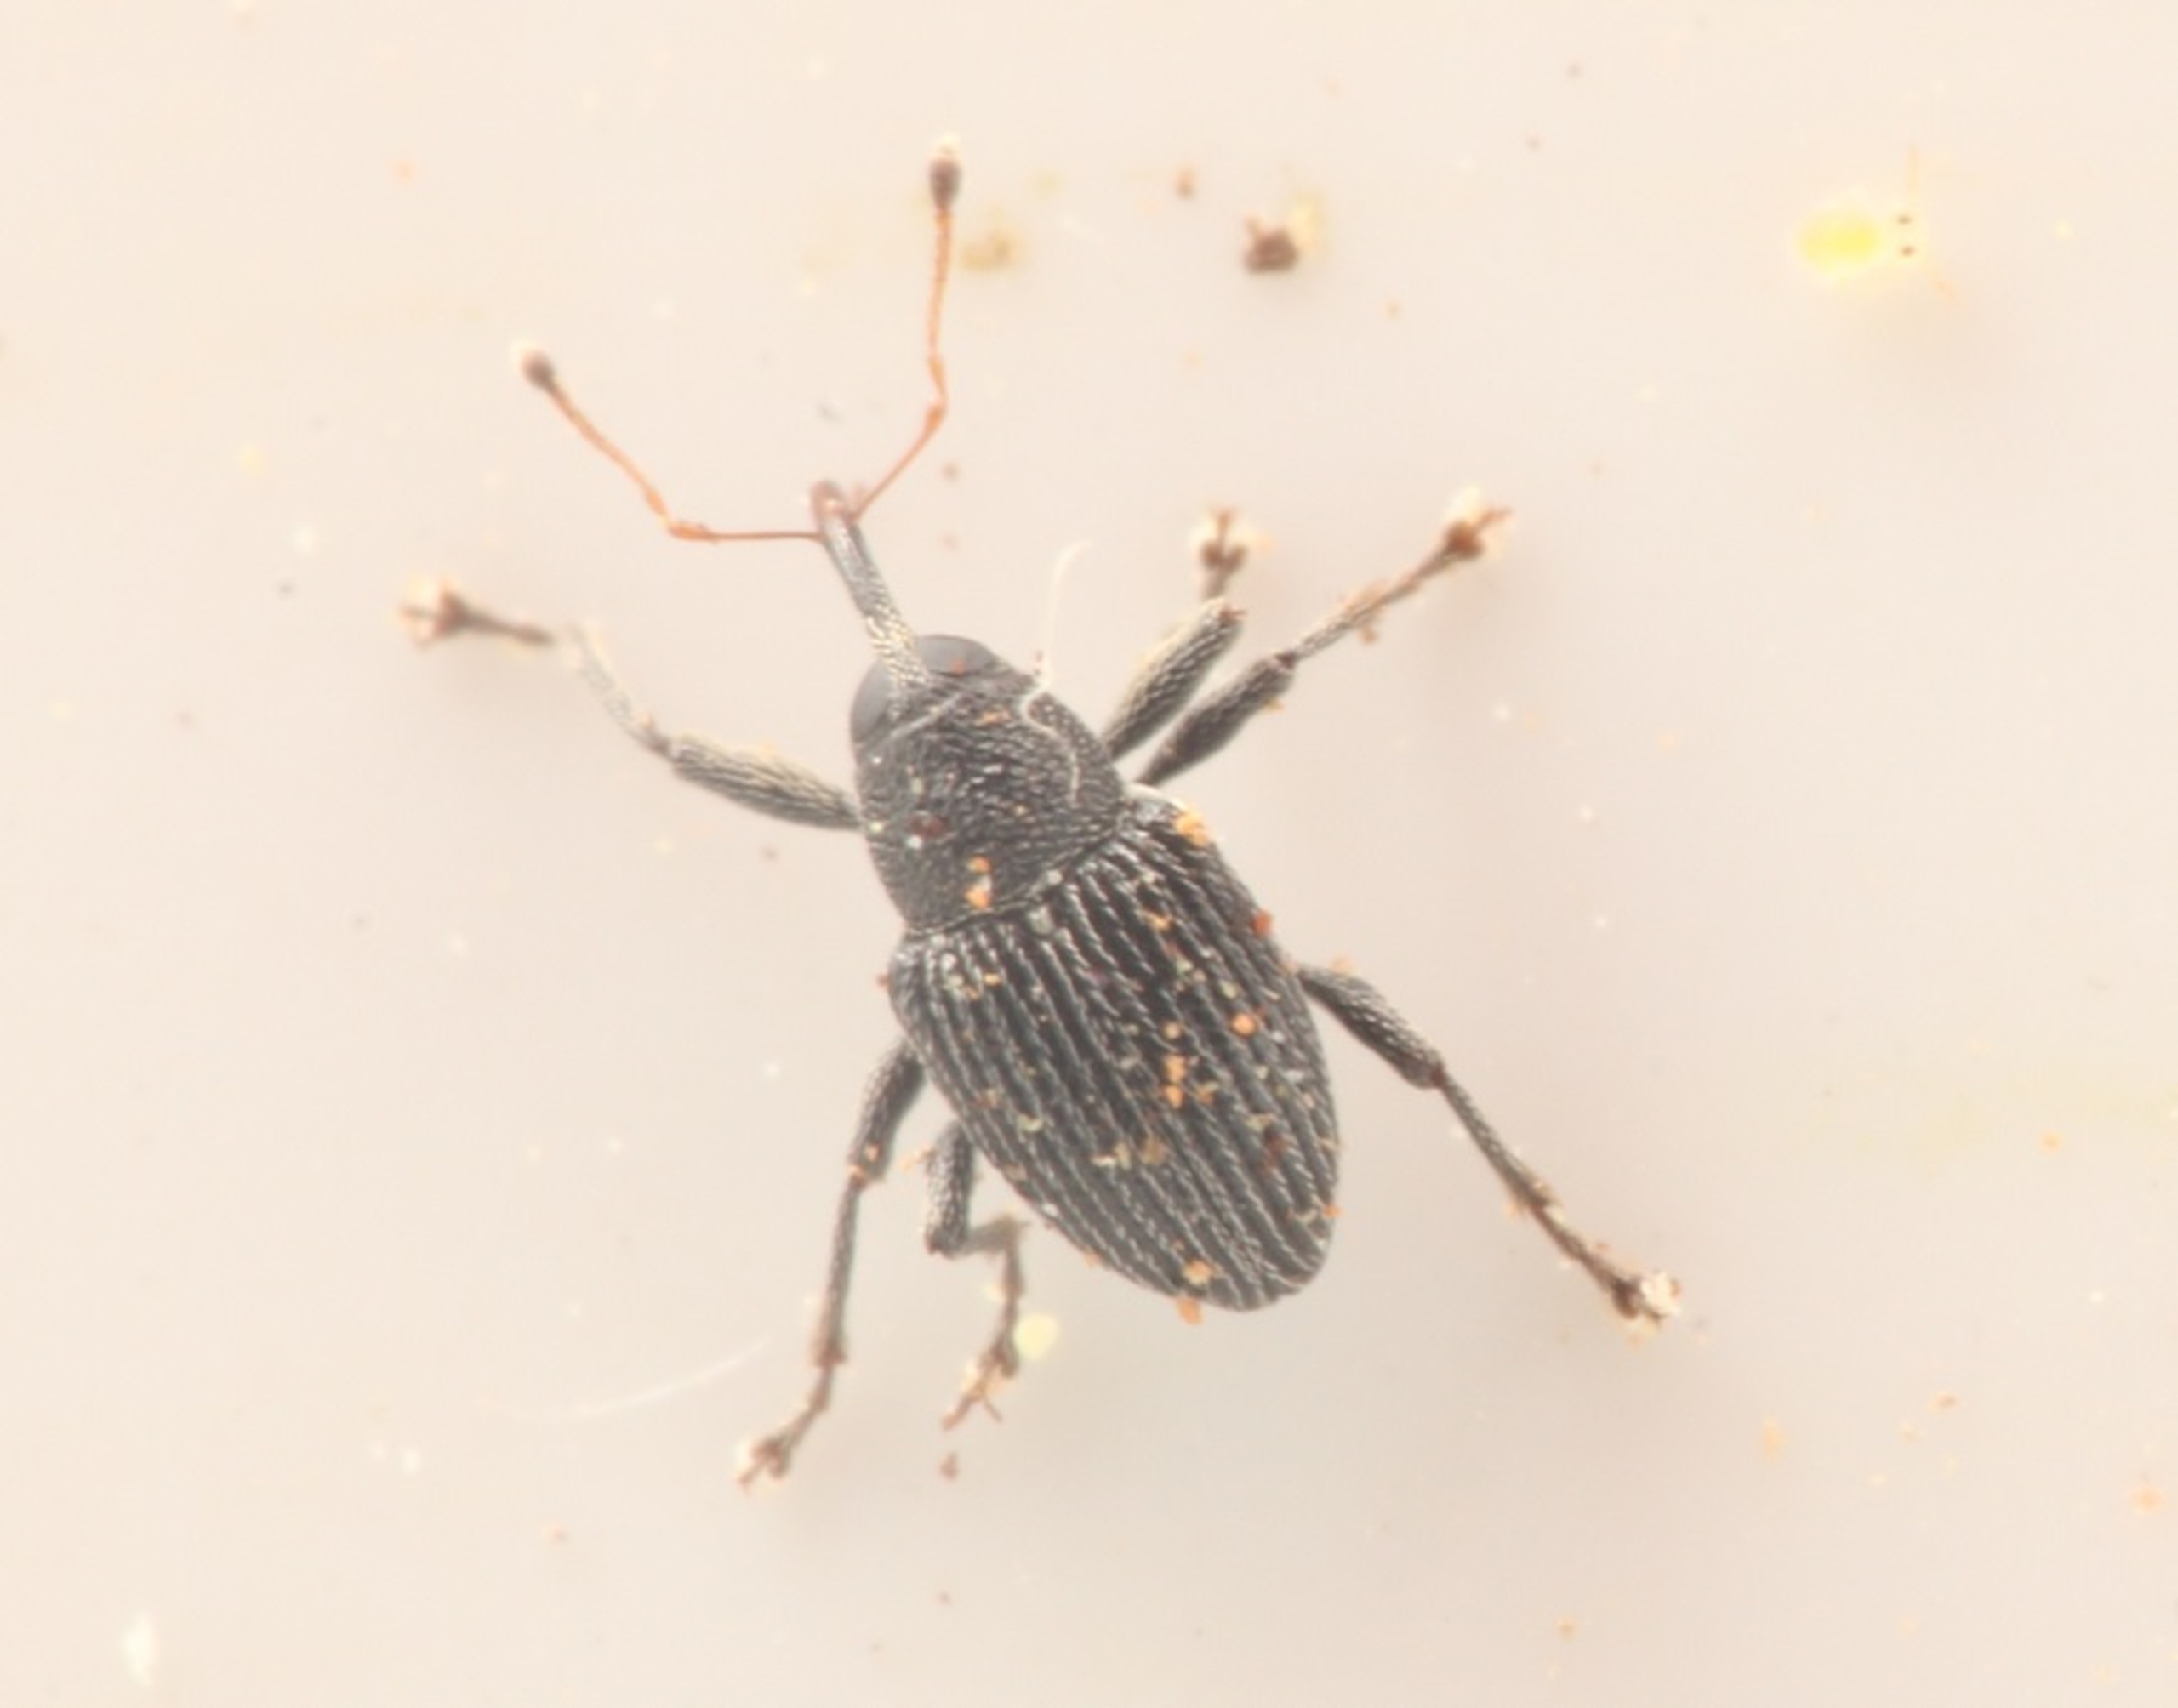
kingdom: Animalia
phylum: Arthropoda
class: Insecta
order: Coleoptera
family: Curculionidae
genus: Archarius
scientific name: Archarius pyrrhoceras
